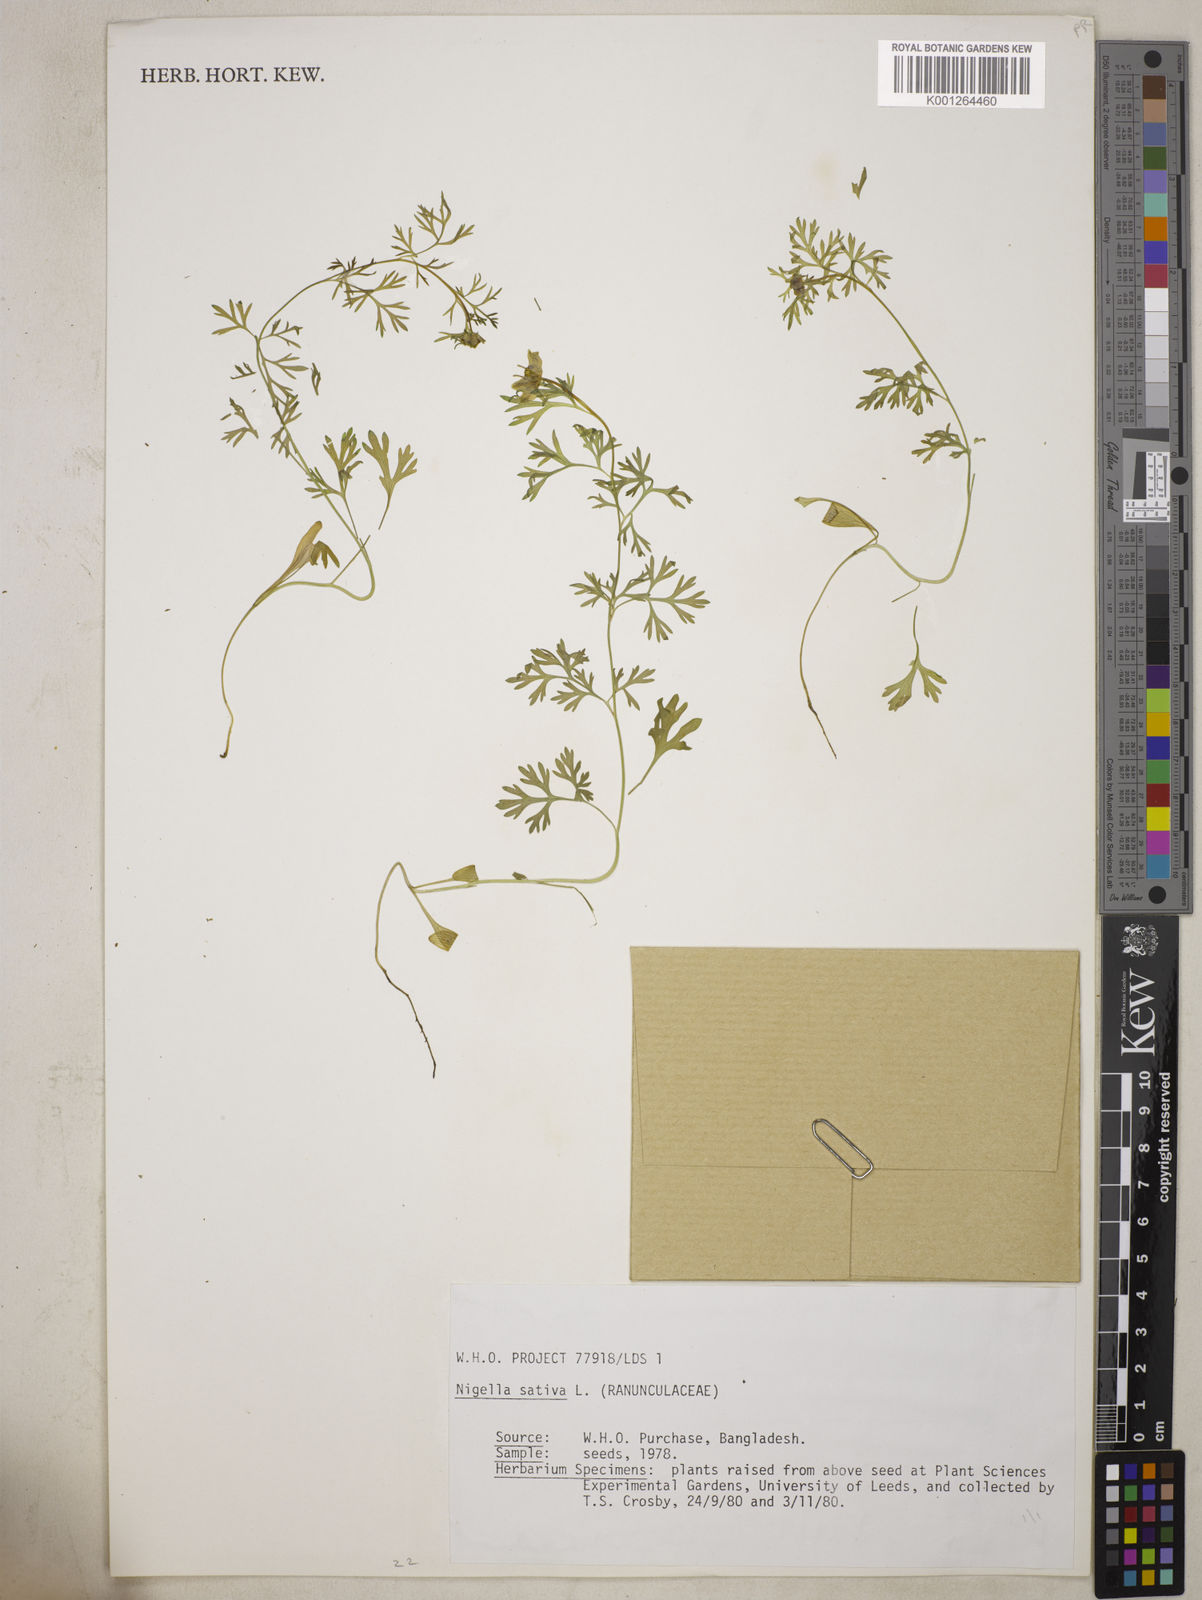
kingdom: Plantae
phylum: Tracheophyta
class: Magnoliopsida
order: Ranunculales
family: Ranunculaceae
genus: Nigella
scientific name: Nigella sativa
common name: Black-cumin
